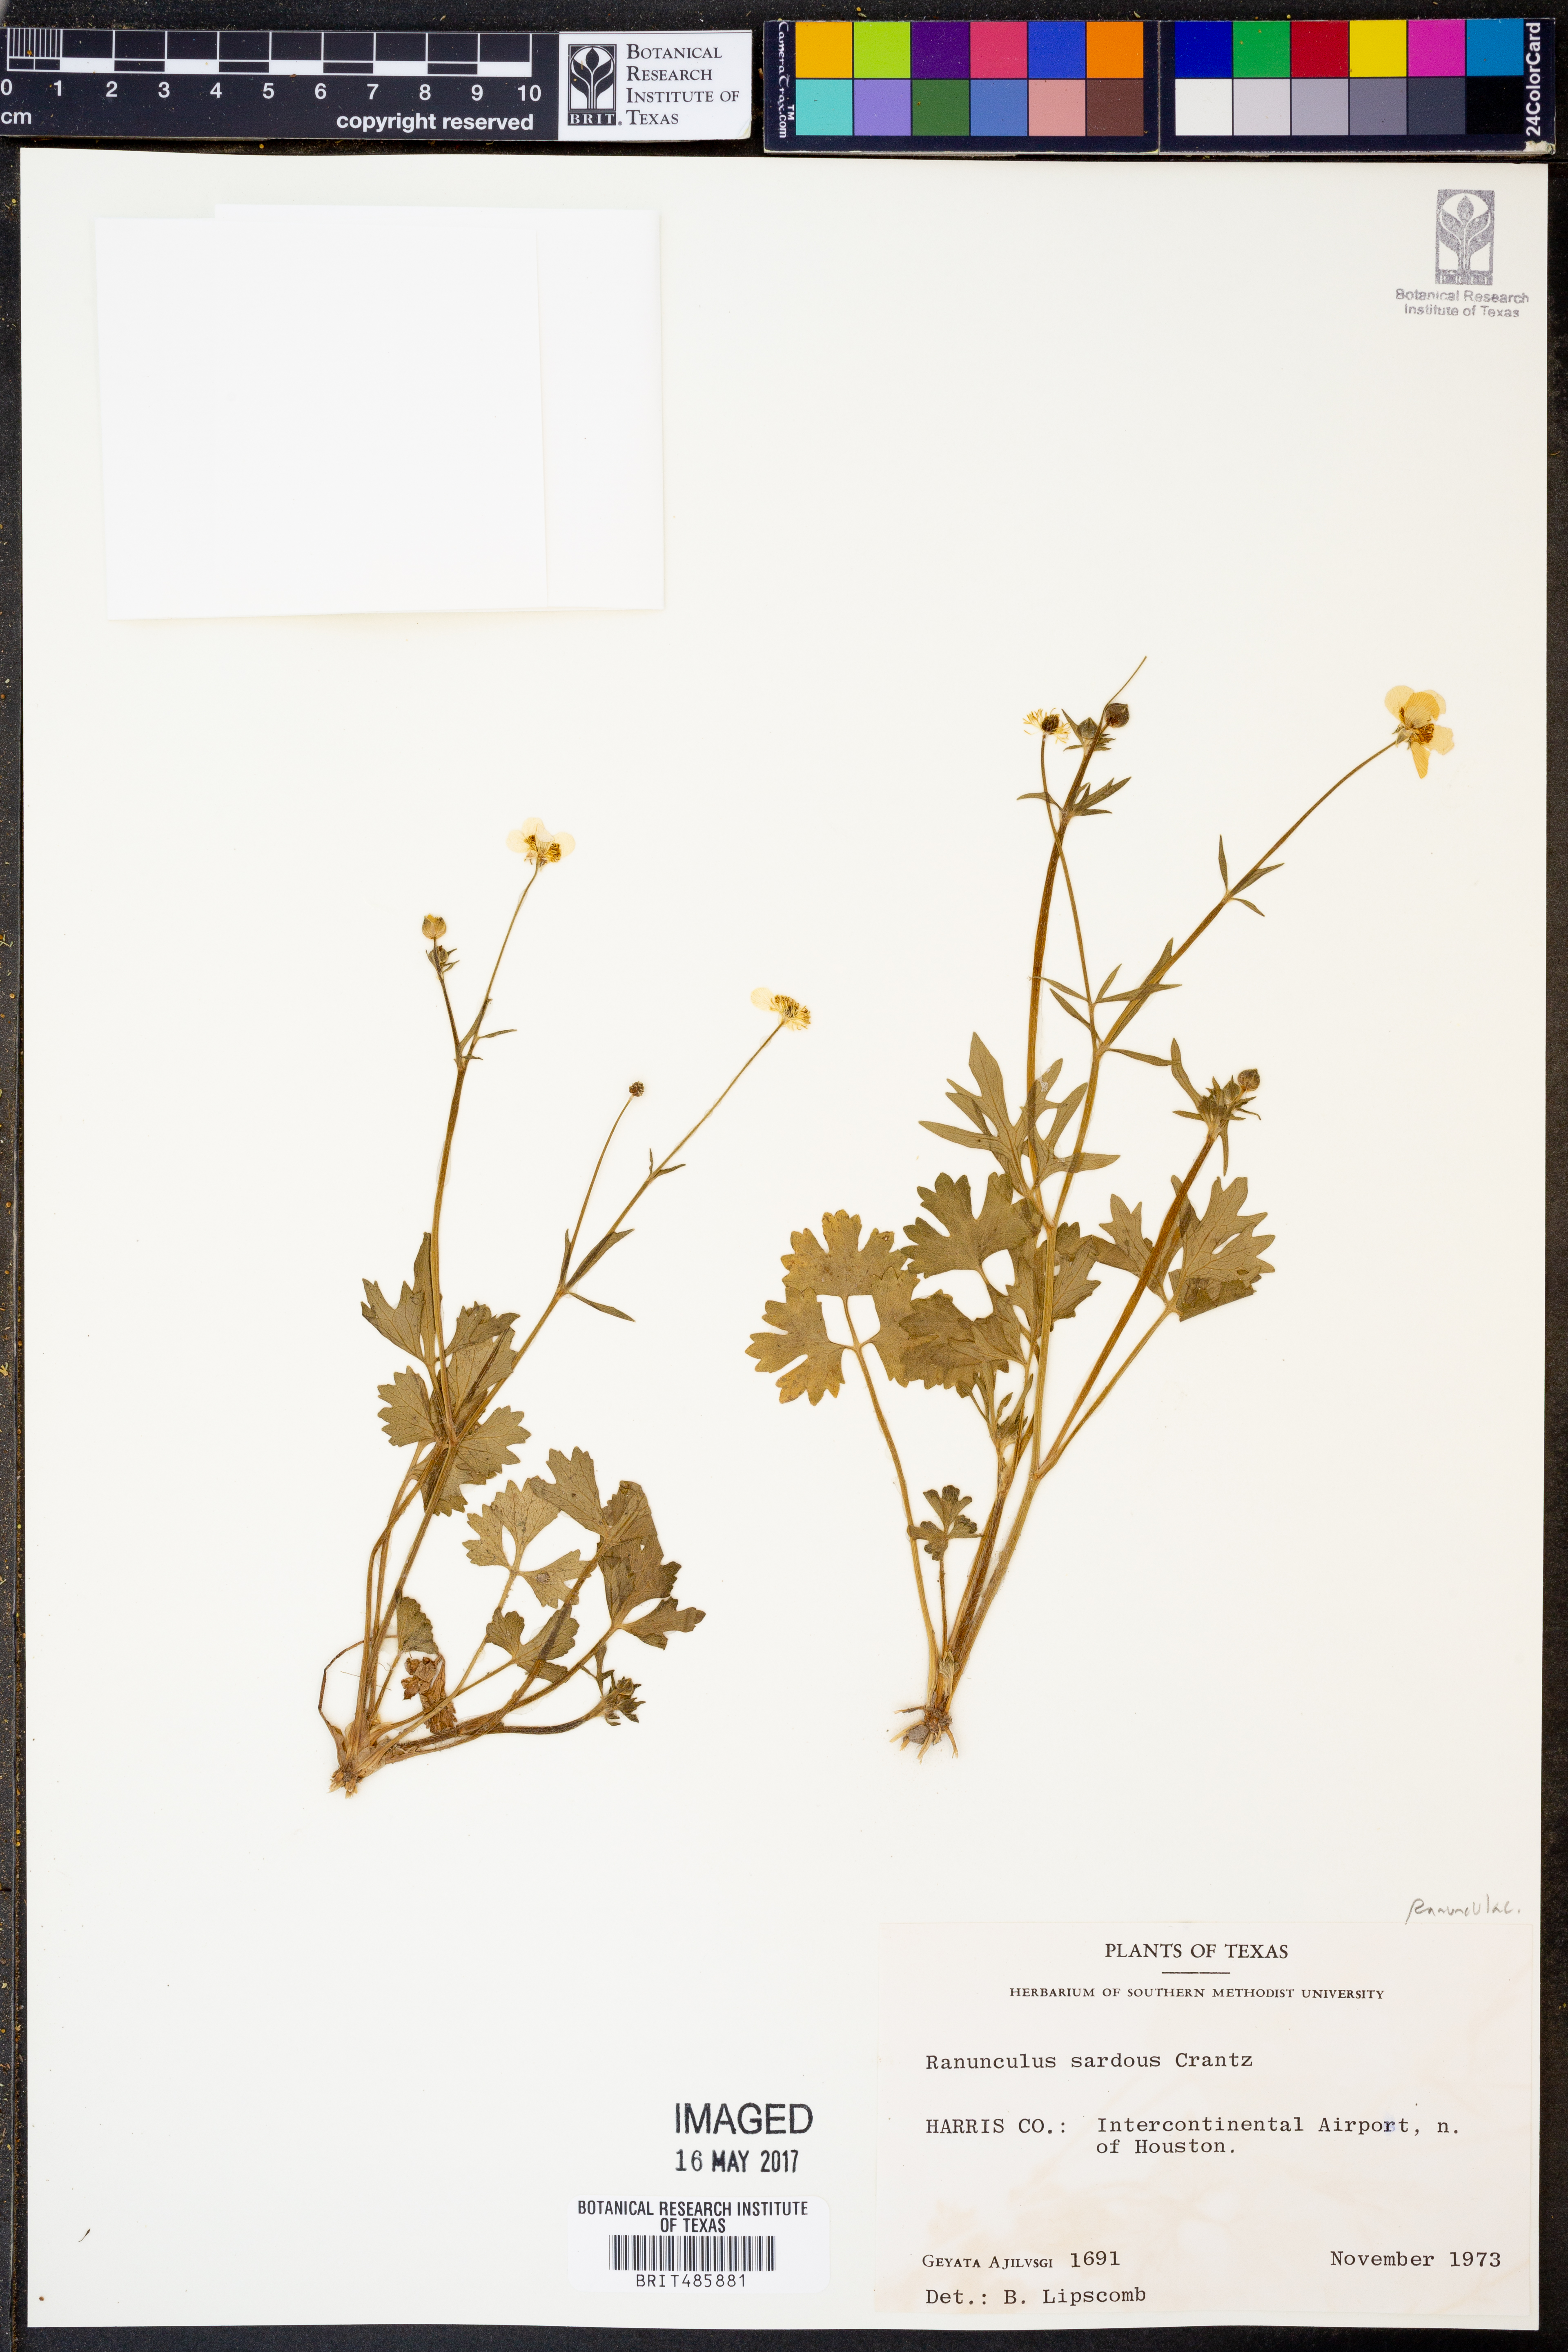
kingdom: Plantae
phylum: Tracheophyta
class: Magnoliopsida
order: Ranunculales
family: Ranunculaceae
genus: Ranunculus
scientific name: Ranunculus sardous
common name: Hairy buttercup
